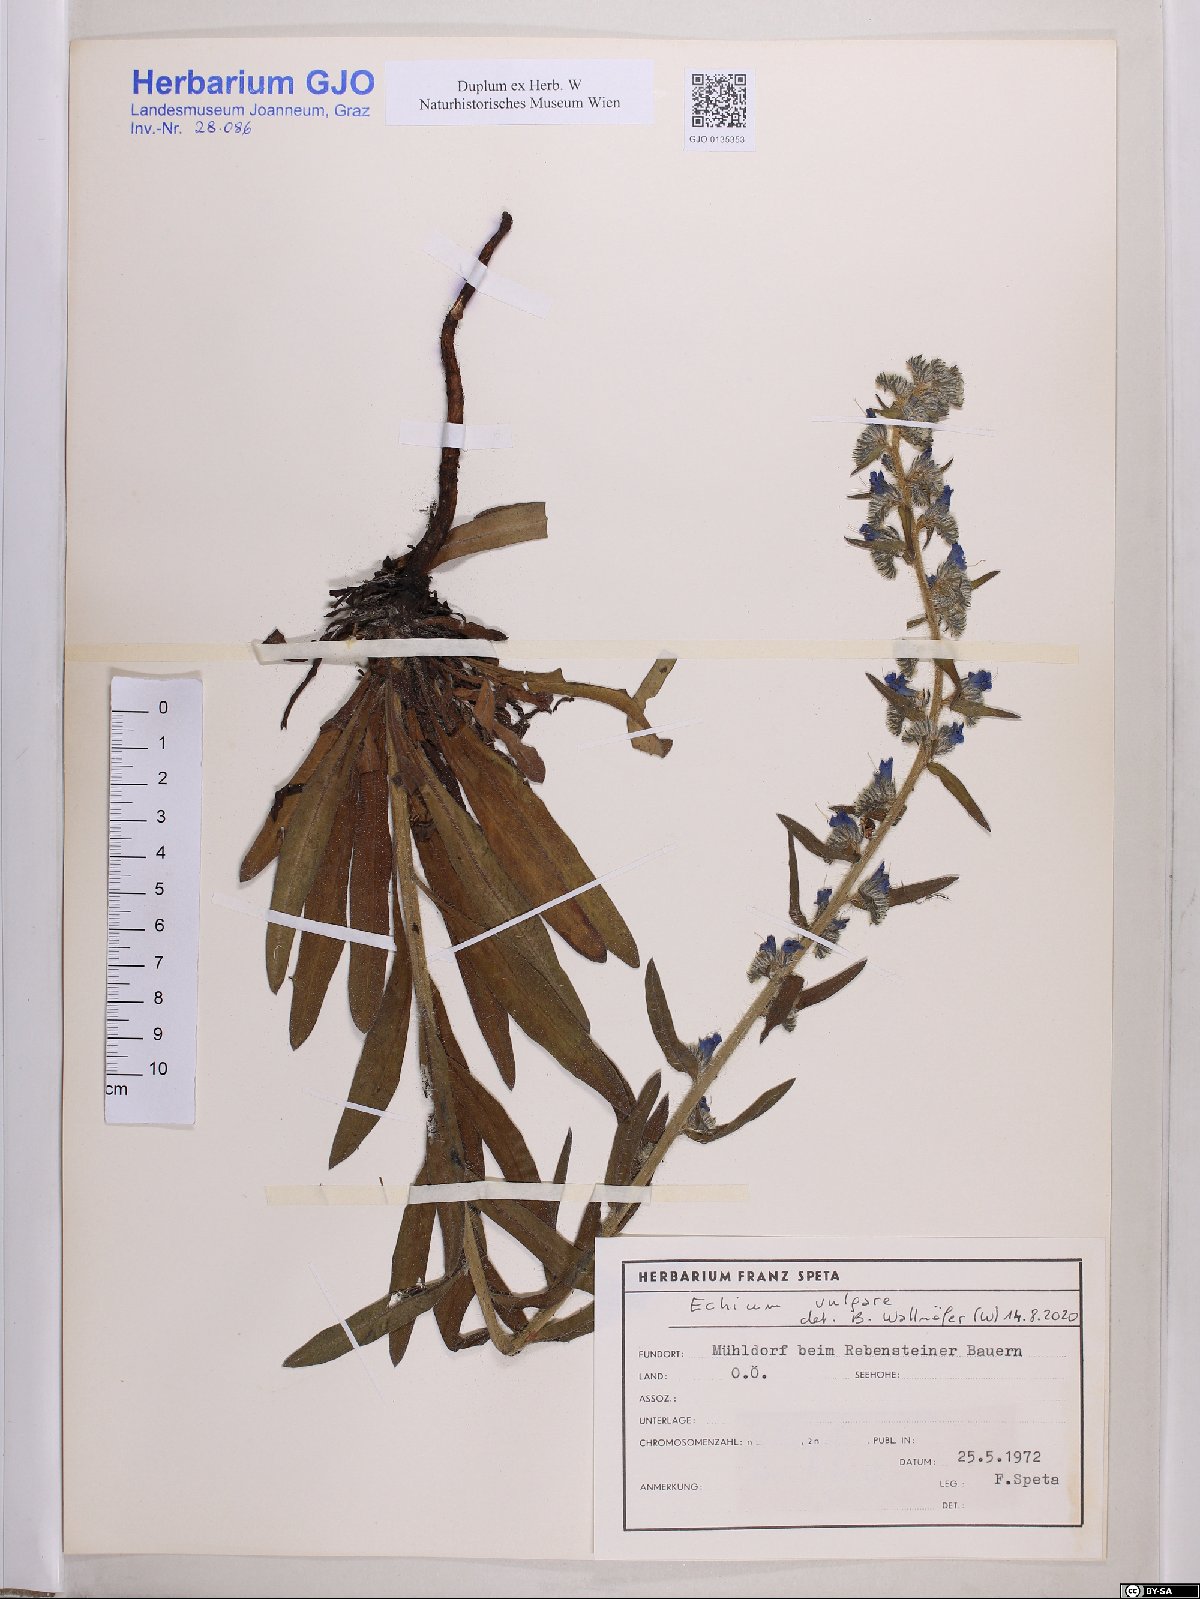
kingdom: Plantae
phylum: Tracheophyta
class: Magnoliopsida
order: Boraginales
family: Boraginaceae
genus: Echium
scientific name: Echium vulgare
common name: Common viper's bugloss
